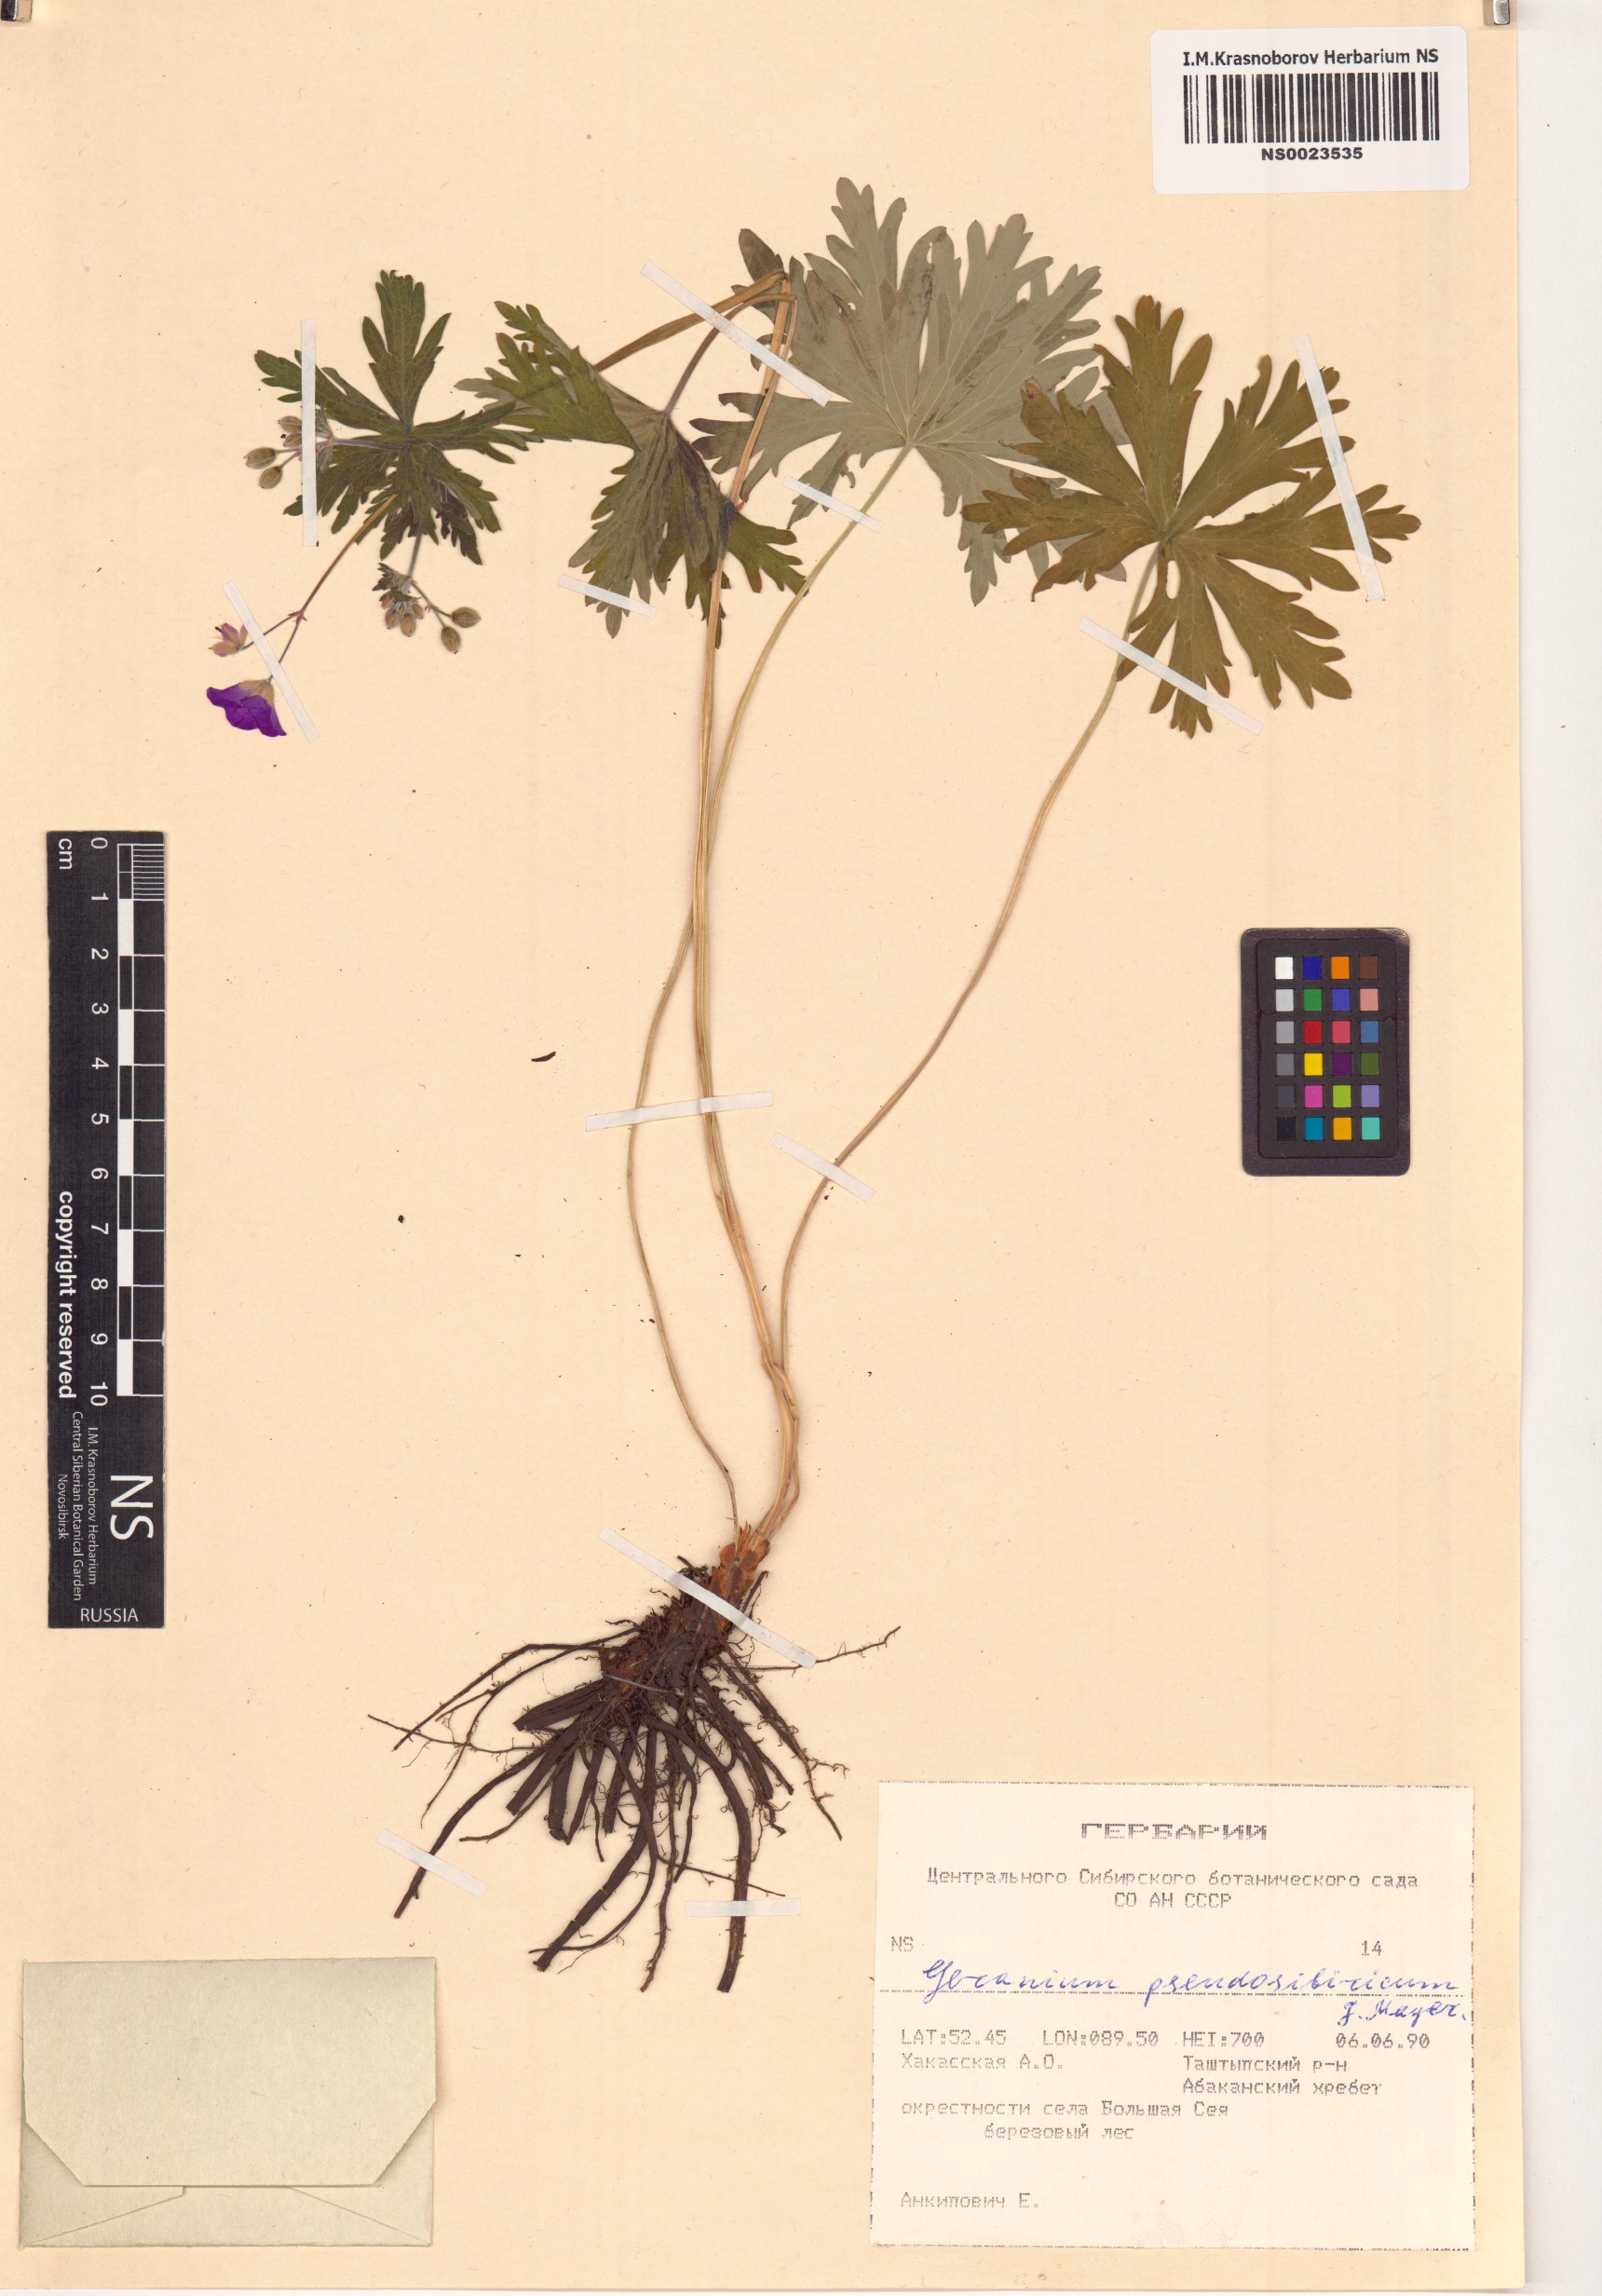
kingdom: Plantae
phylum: Tracheophyta
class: Magnoliopsida
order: Geraniales
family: Geraniaceae
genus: Geranium
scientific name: Geranium pseudosibiricum
